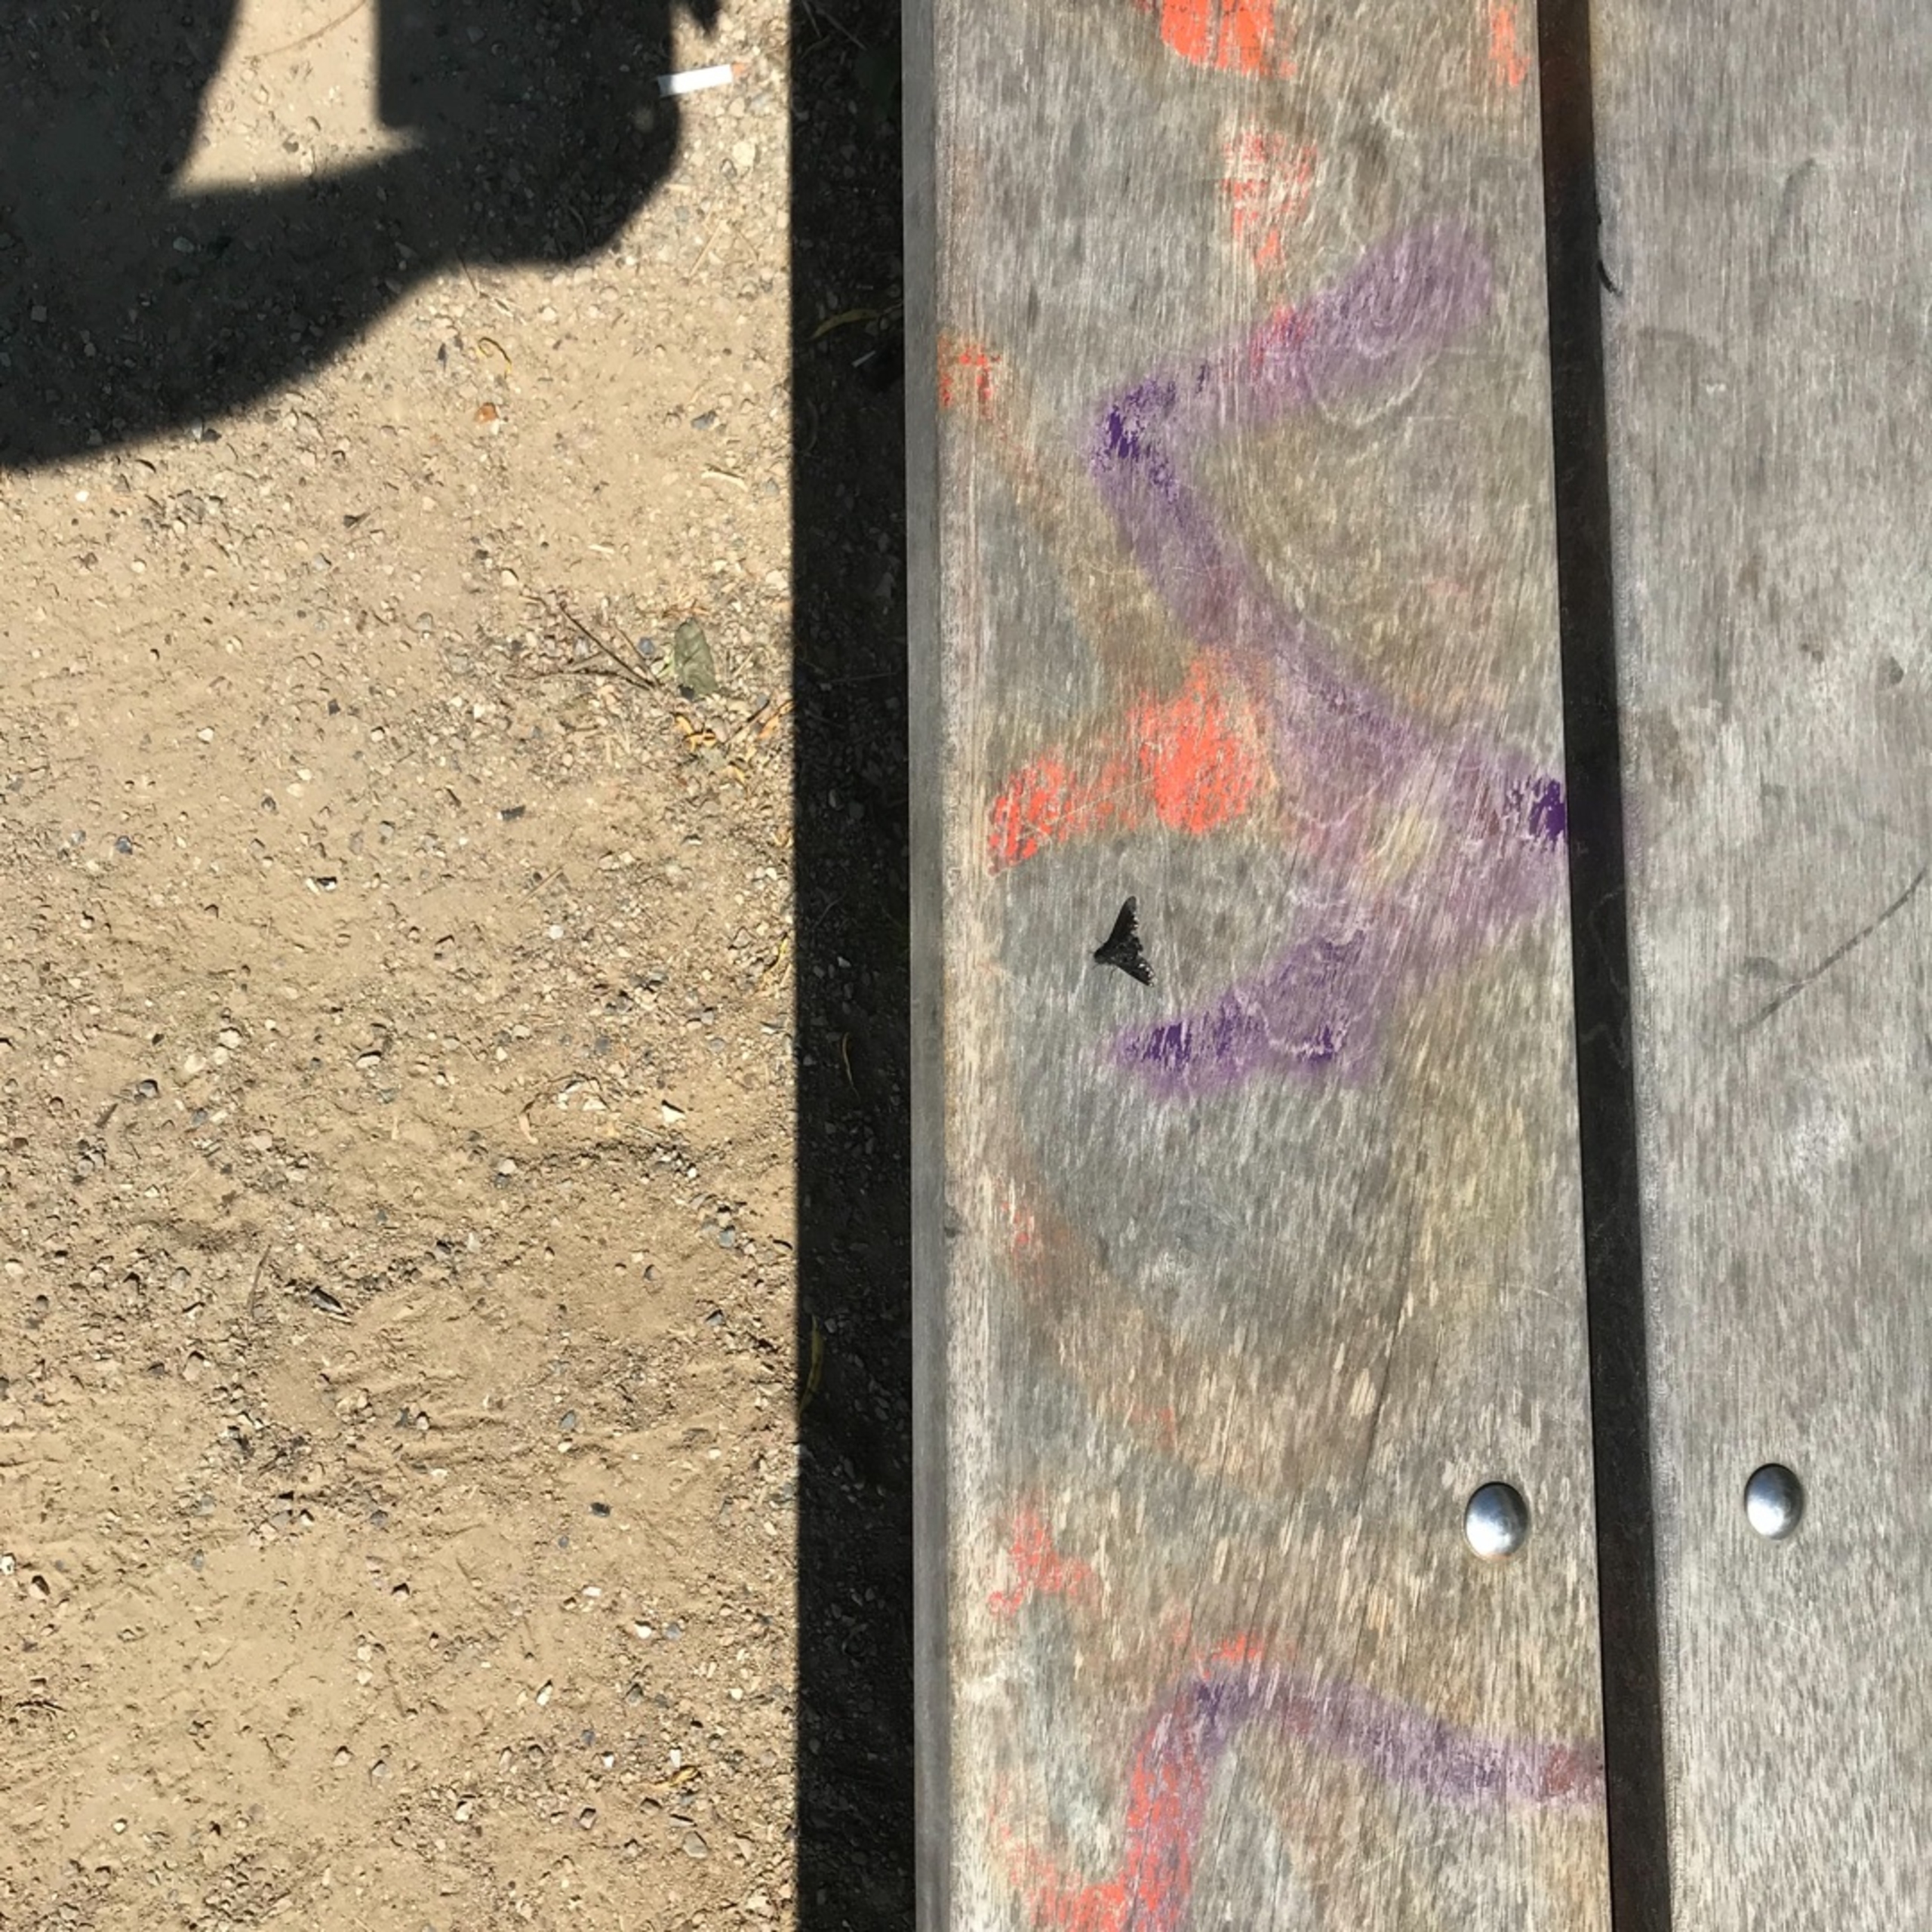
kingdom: Animalia
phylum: Arthropoda
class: Insecta
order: Diptera
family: Bombyliidae
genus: Anthrax
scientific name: Anthrax anthrax
